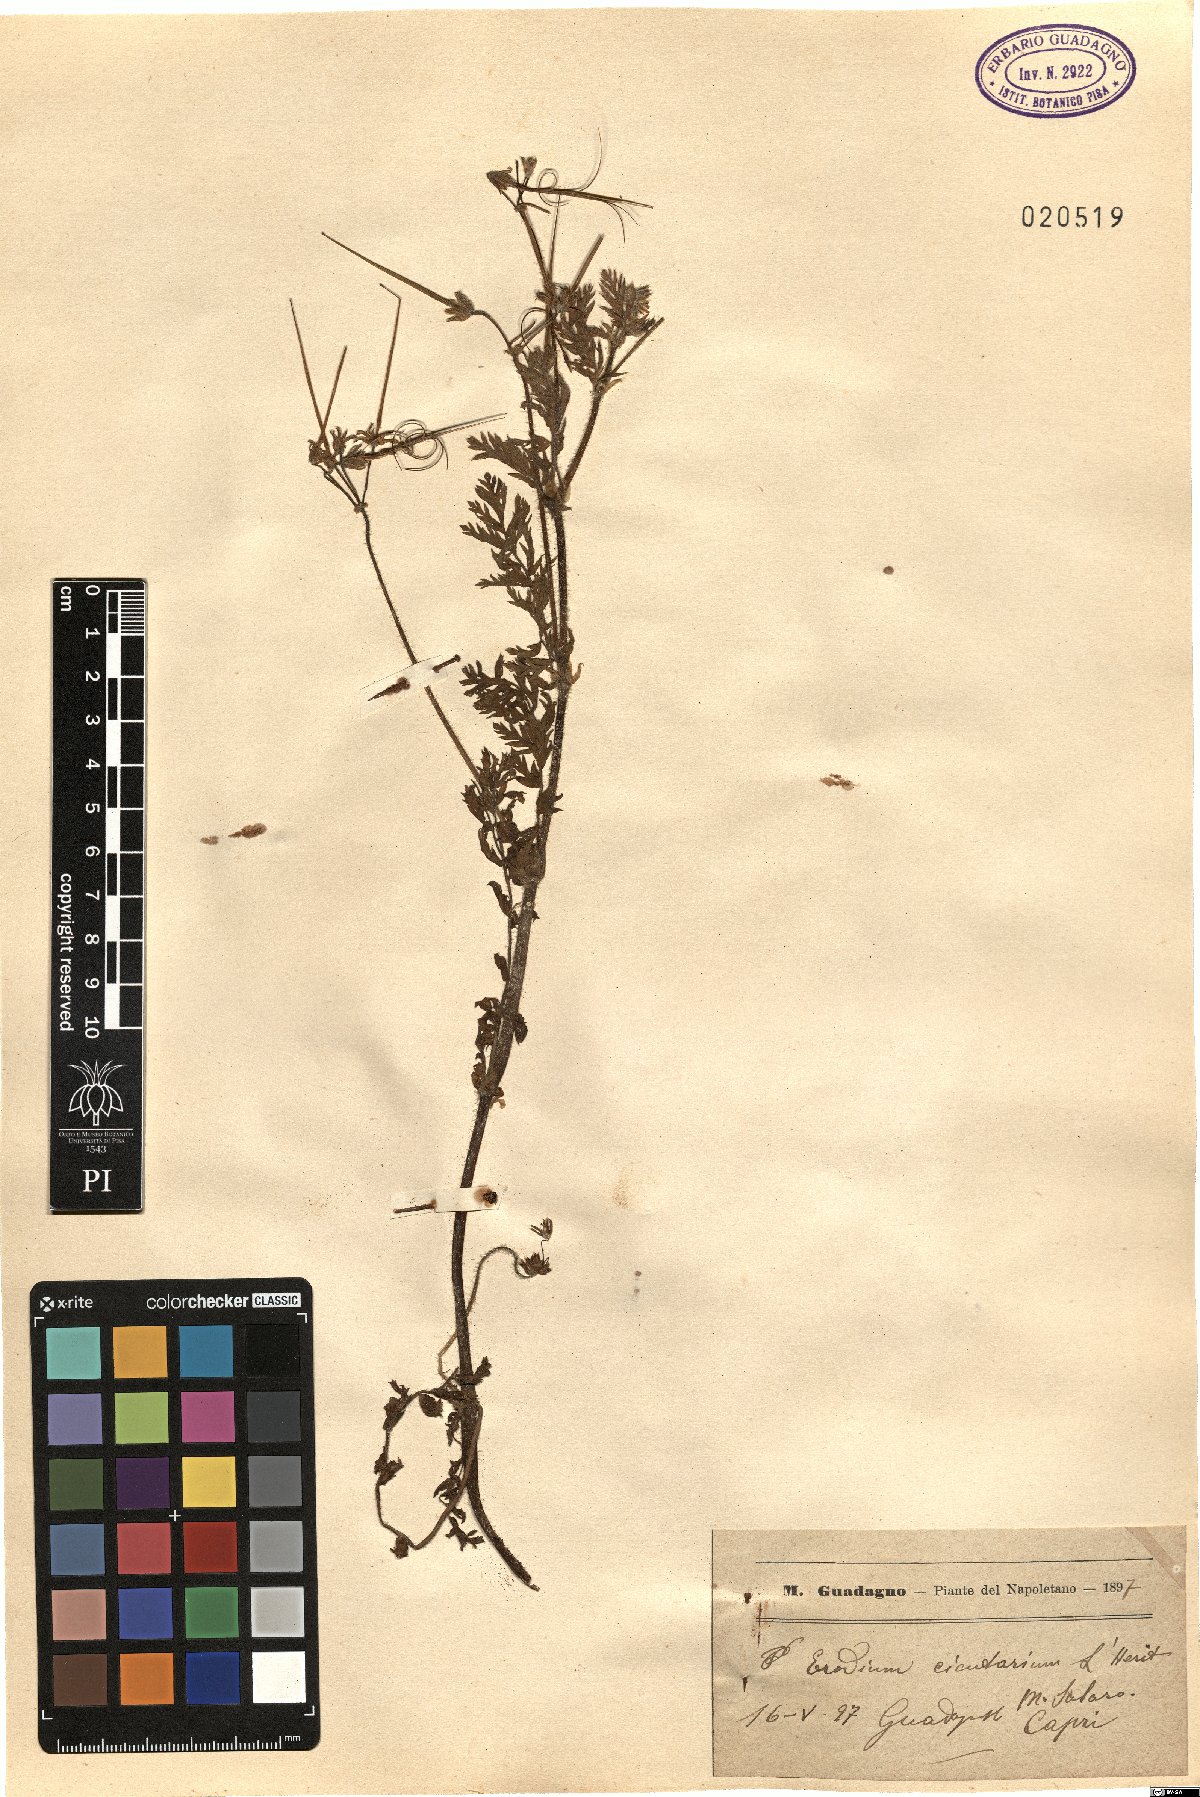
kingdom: Plantae
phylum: Tracheophyta
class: Magnoliopsida
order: Geraniales
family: Geraniaceae
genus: Erodium
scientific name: Erodium cicutarium
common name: Common stork's-bill
